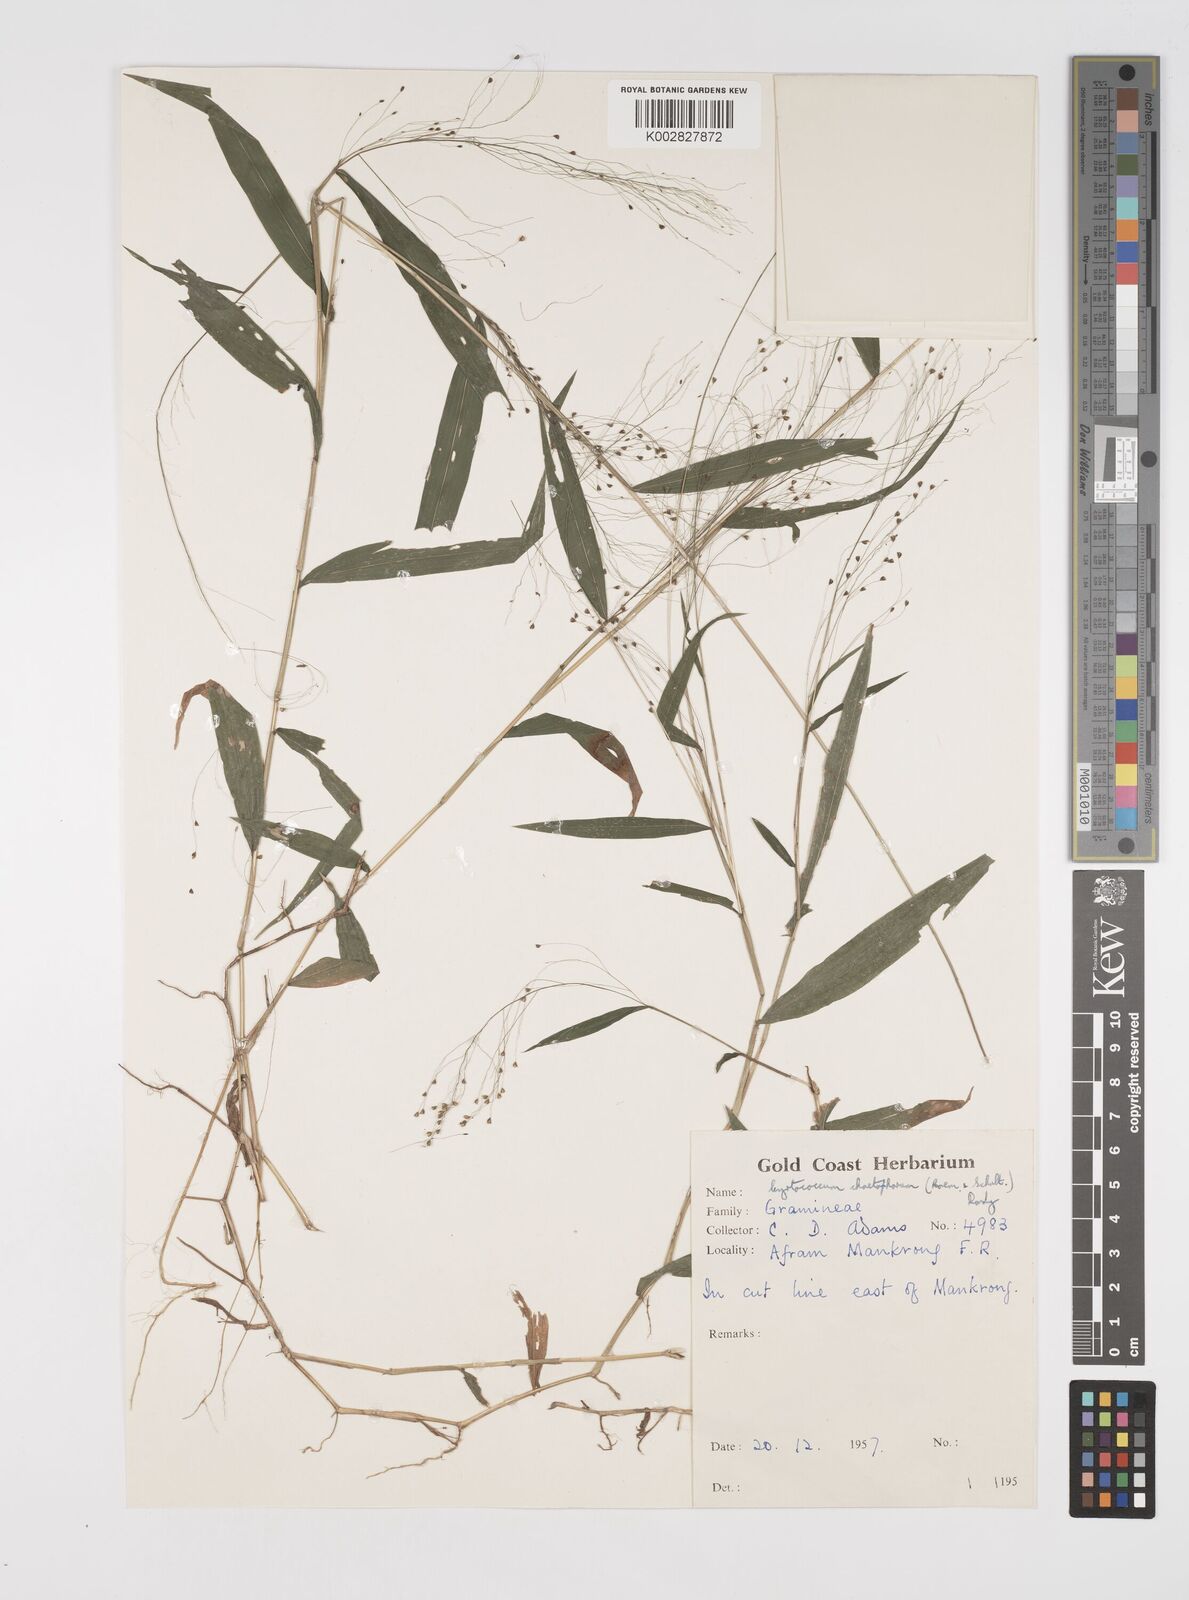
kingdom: Plantae
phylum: Tracheophyta
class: Liliopsida
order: Poales
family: Poaceae
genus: Cyrtococcum
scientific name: Cyrtococcum chaetophoron
